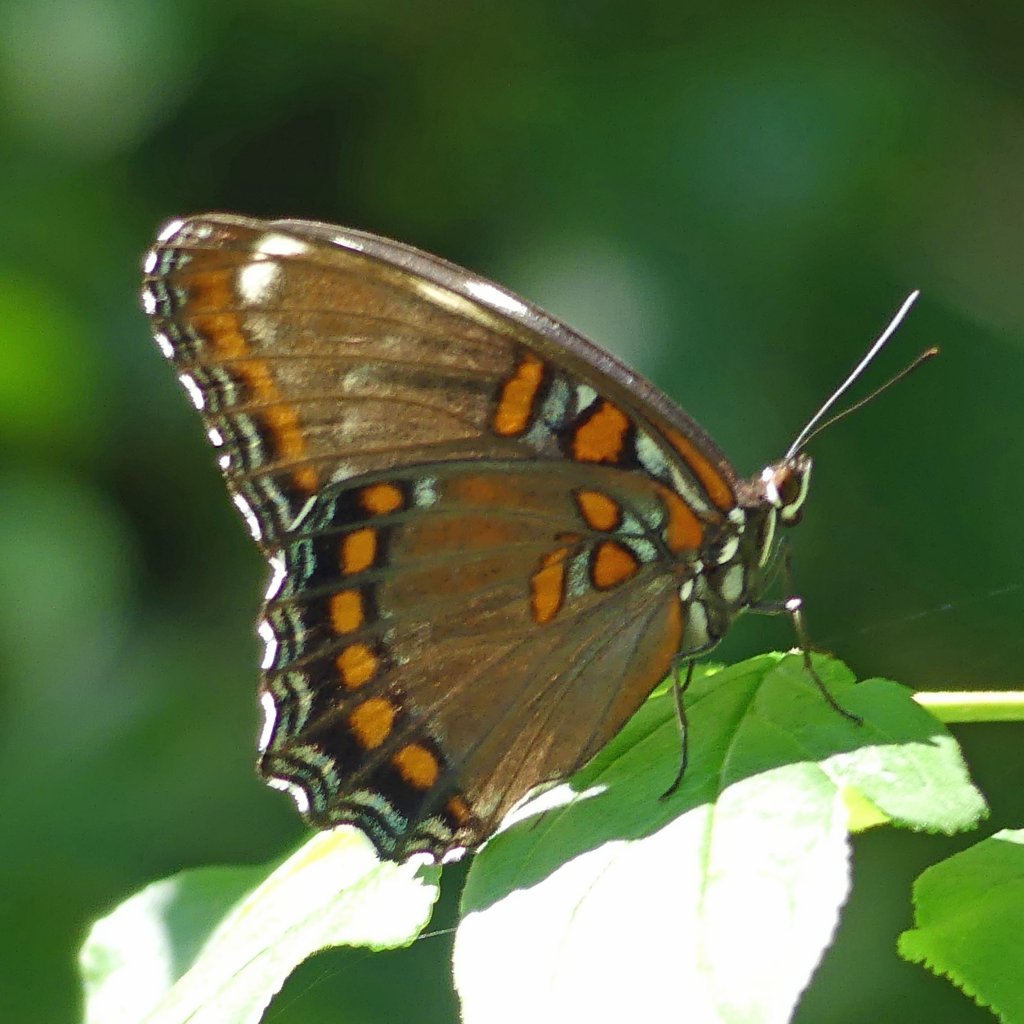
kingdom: Animalia
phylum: Arthropoda
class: Insecta
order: Lepidoptera
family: Nymphalidae
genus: Limenitis
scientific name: Limenitis astyanax
